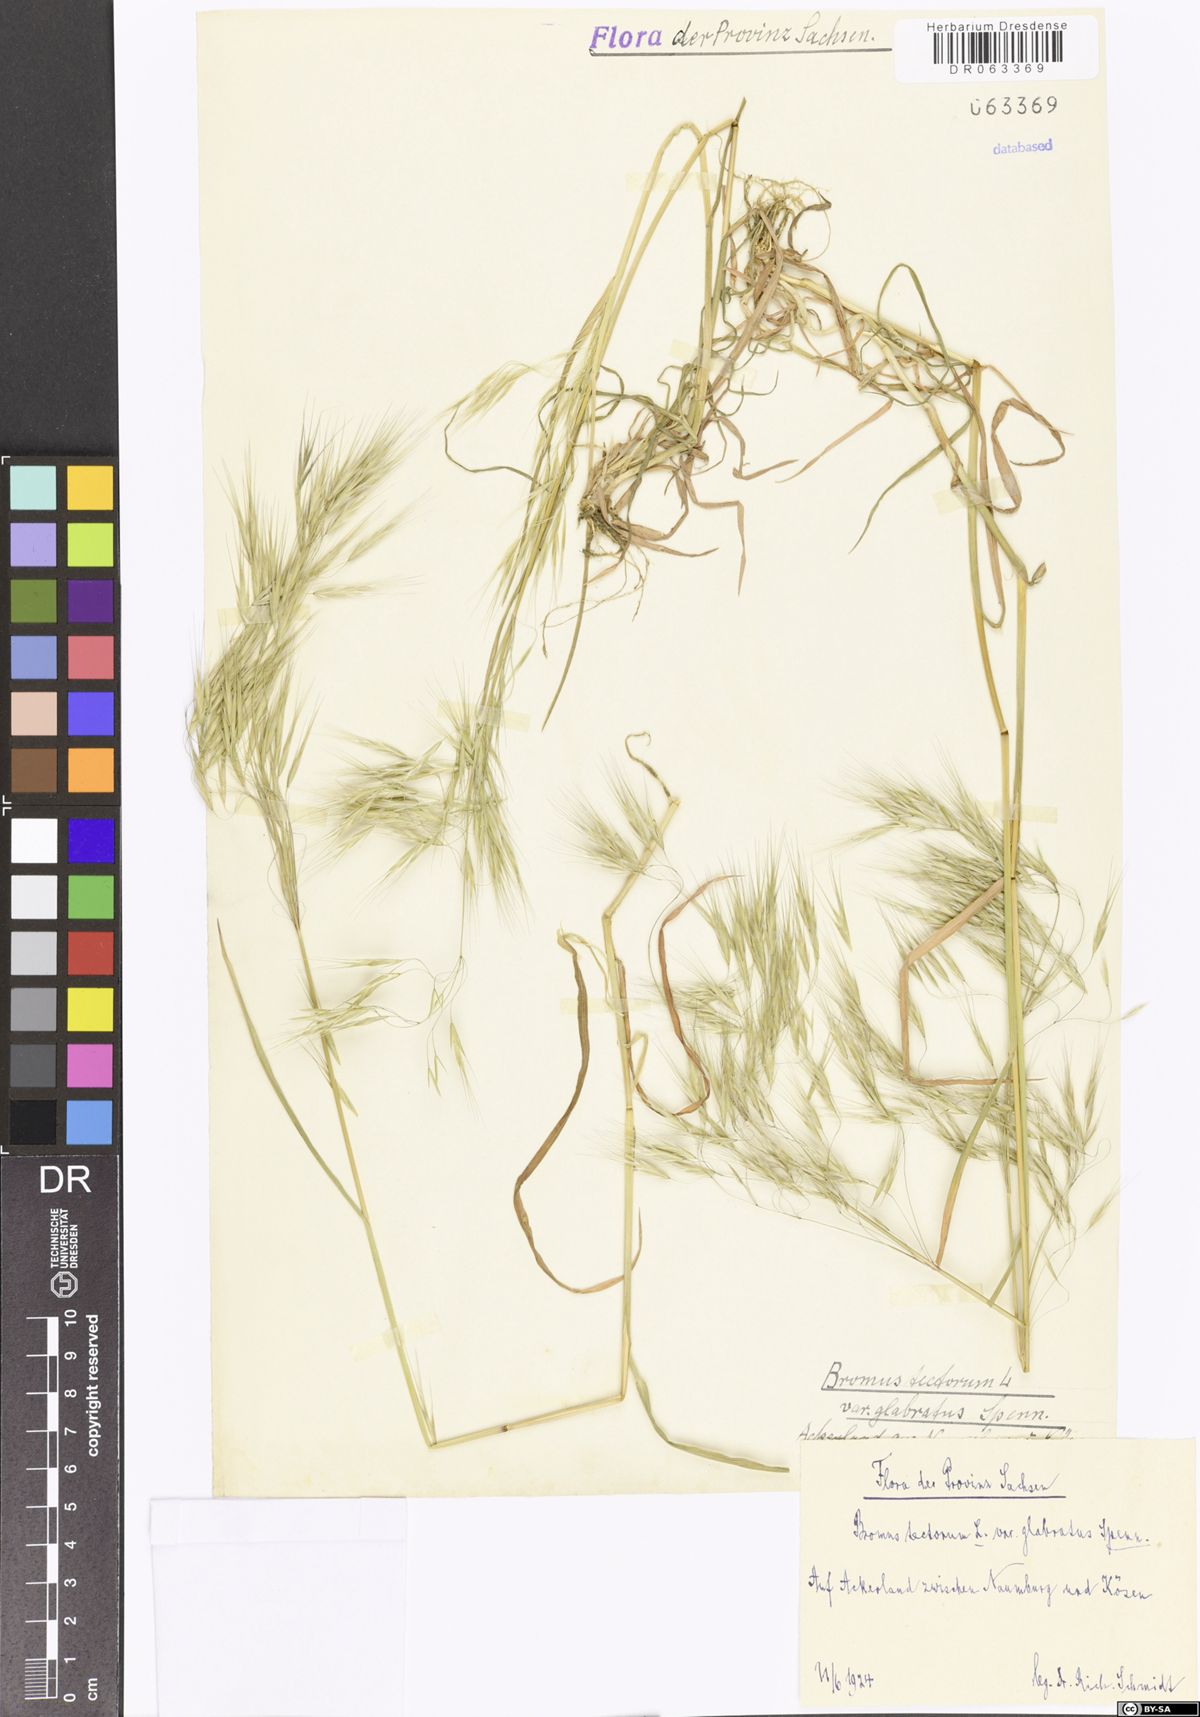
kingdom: Plantae
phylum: Tracheophyta
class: Liliopsida
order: Poales
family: Poaceae
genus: Bromus
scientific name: Bromus tectorum
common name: Cheatgrass
